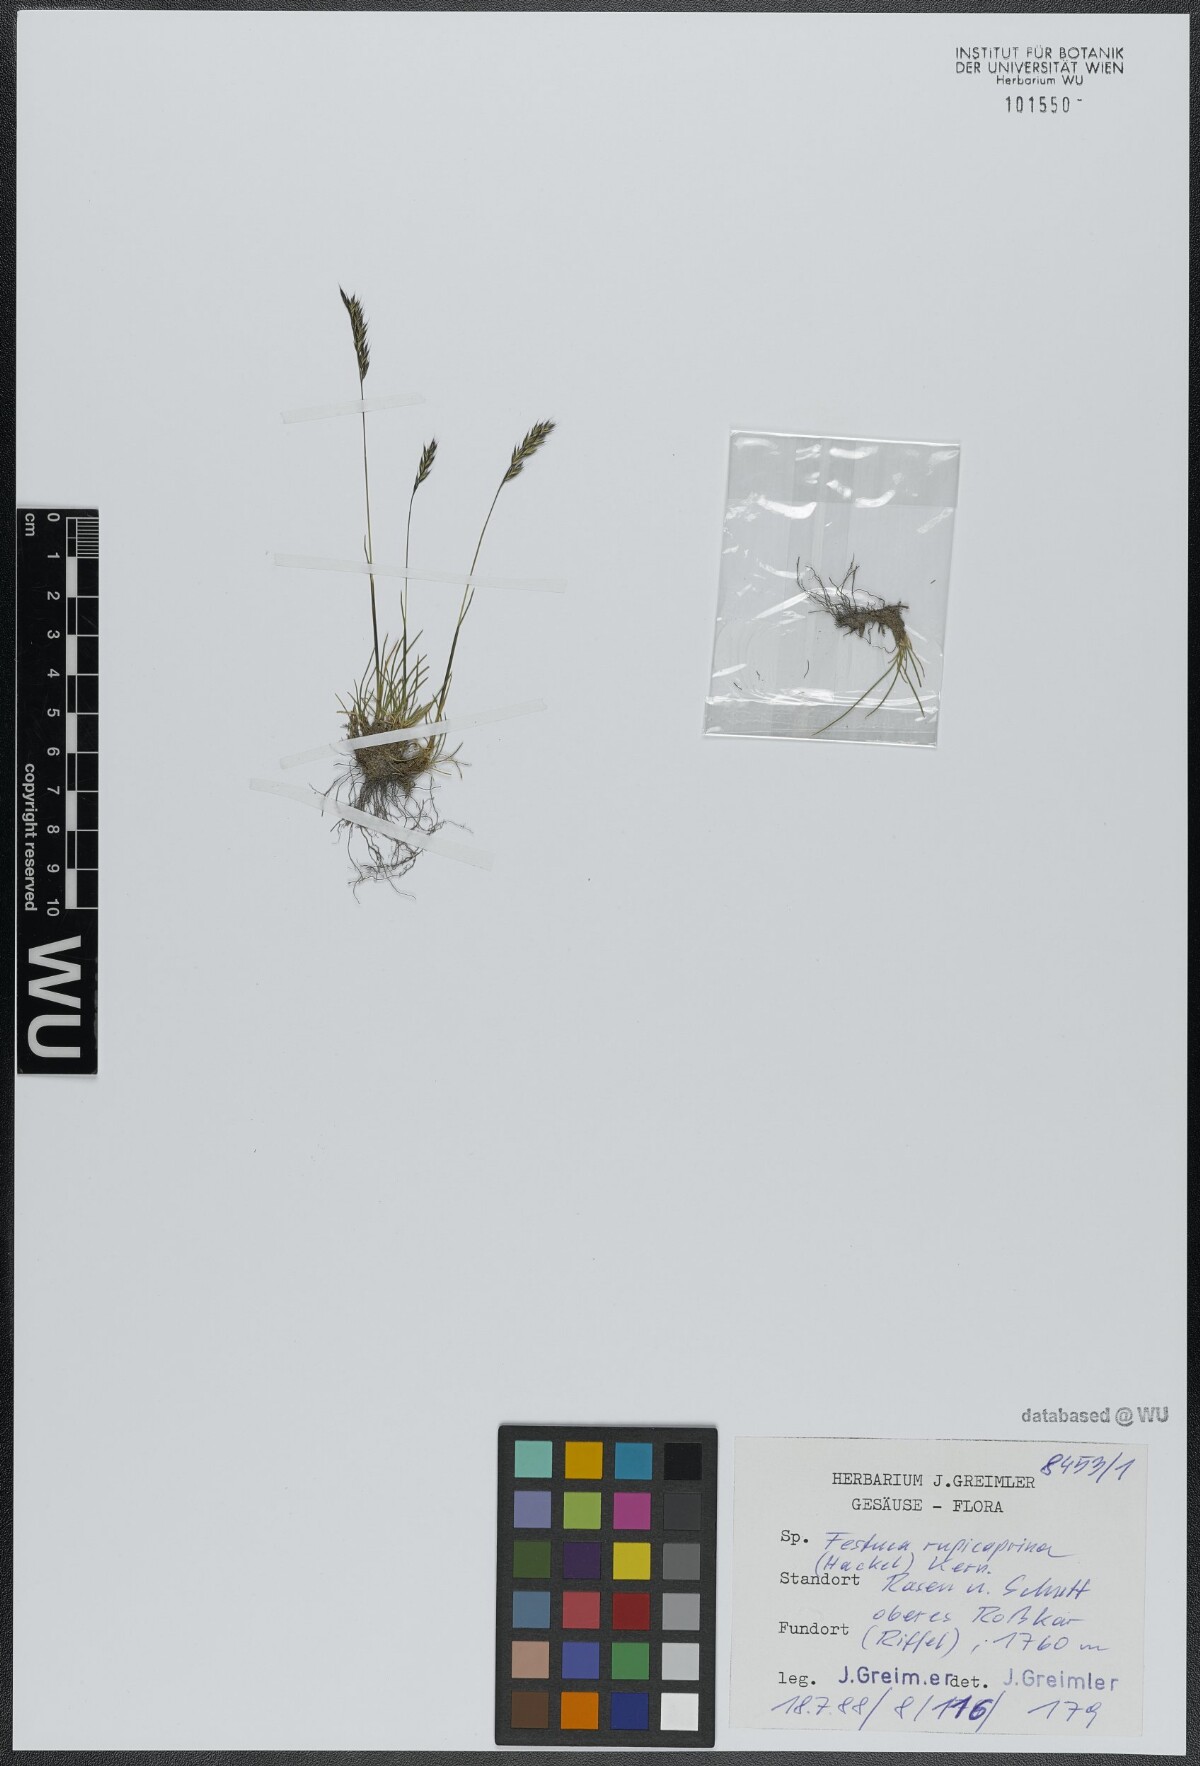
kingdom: Plantae
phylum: Tracheophyta
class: Liliopsida
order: Poales
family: Poaceae
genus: Festuca
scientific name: Festuca rupicaprina
